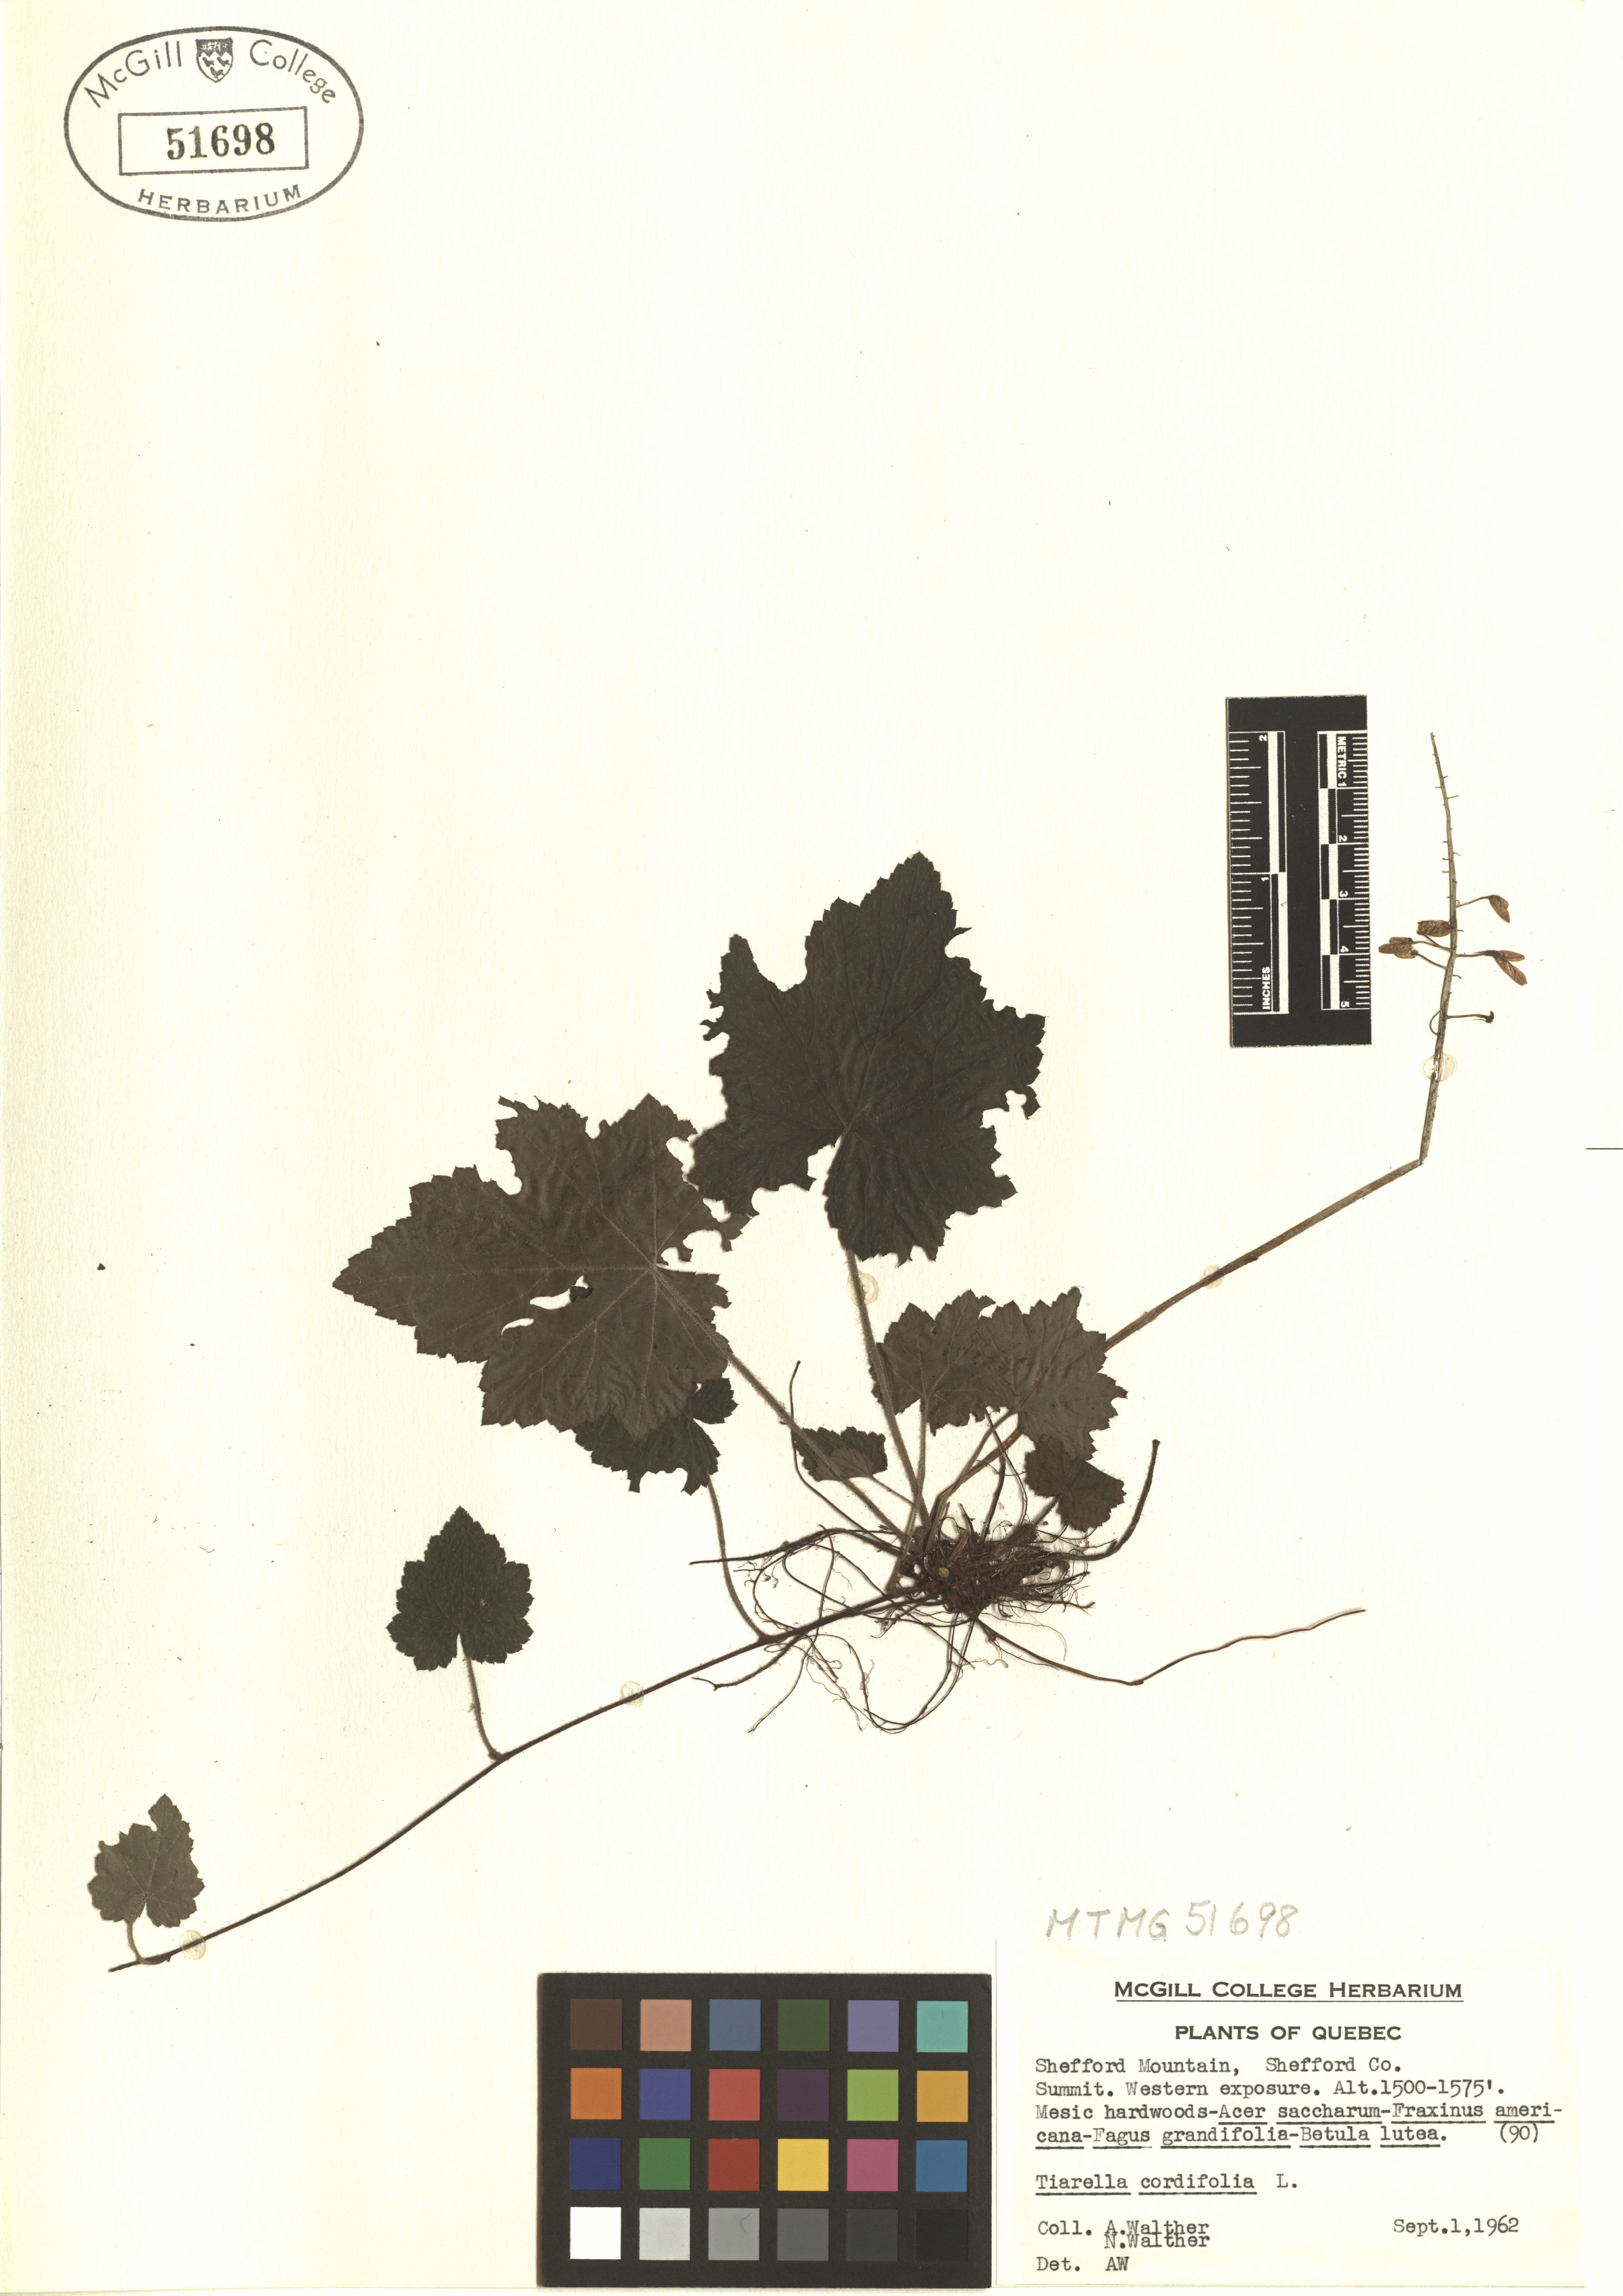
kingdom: Plantae
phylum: Tracheophyta
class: Magnoliopsida
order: Saxifragales
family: Saxifragaceae
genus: Tiarella
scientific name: Tiarella cordifolia
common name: Foamflower
